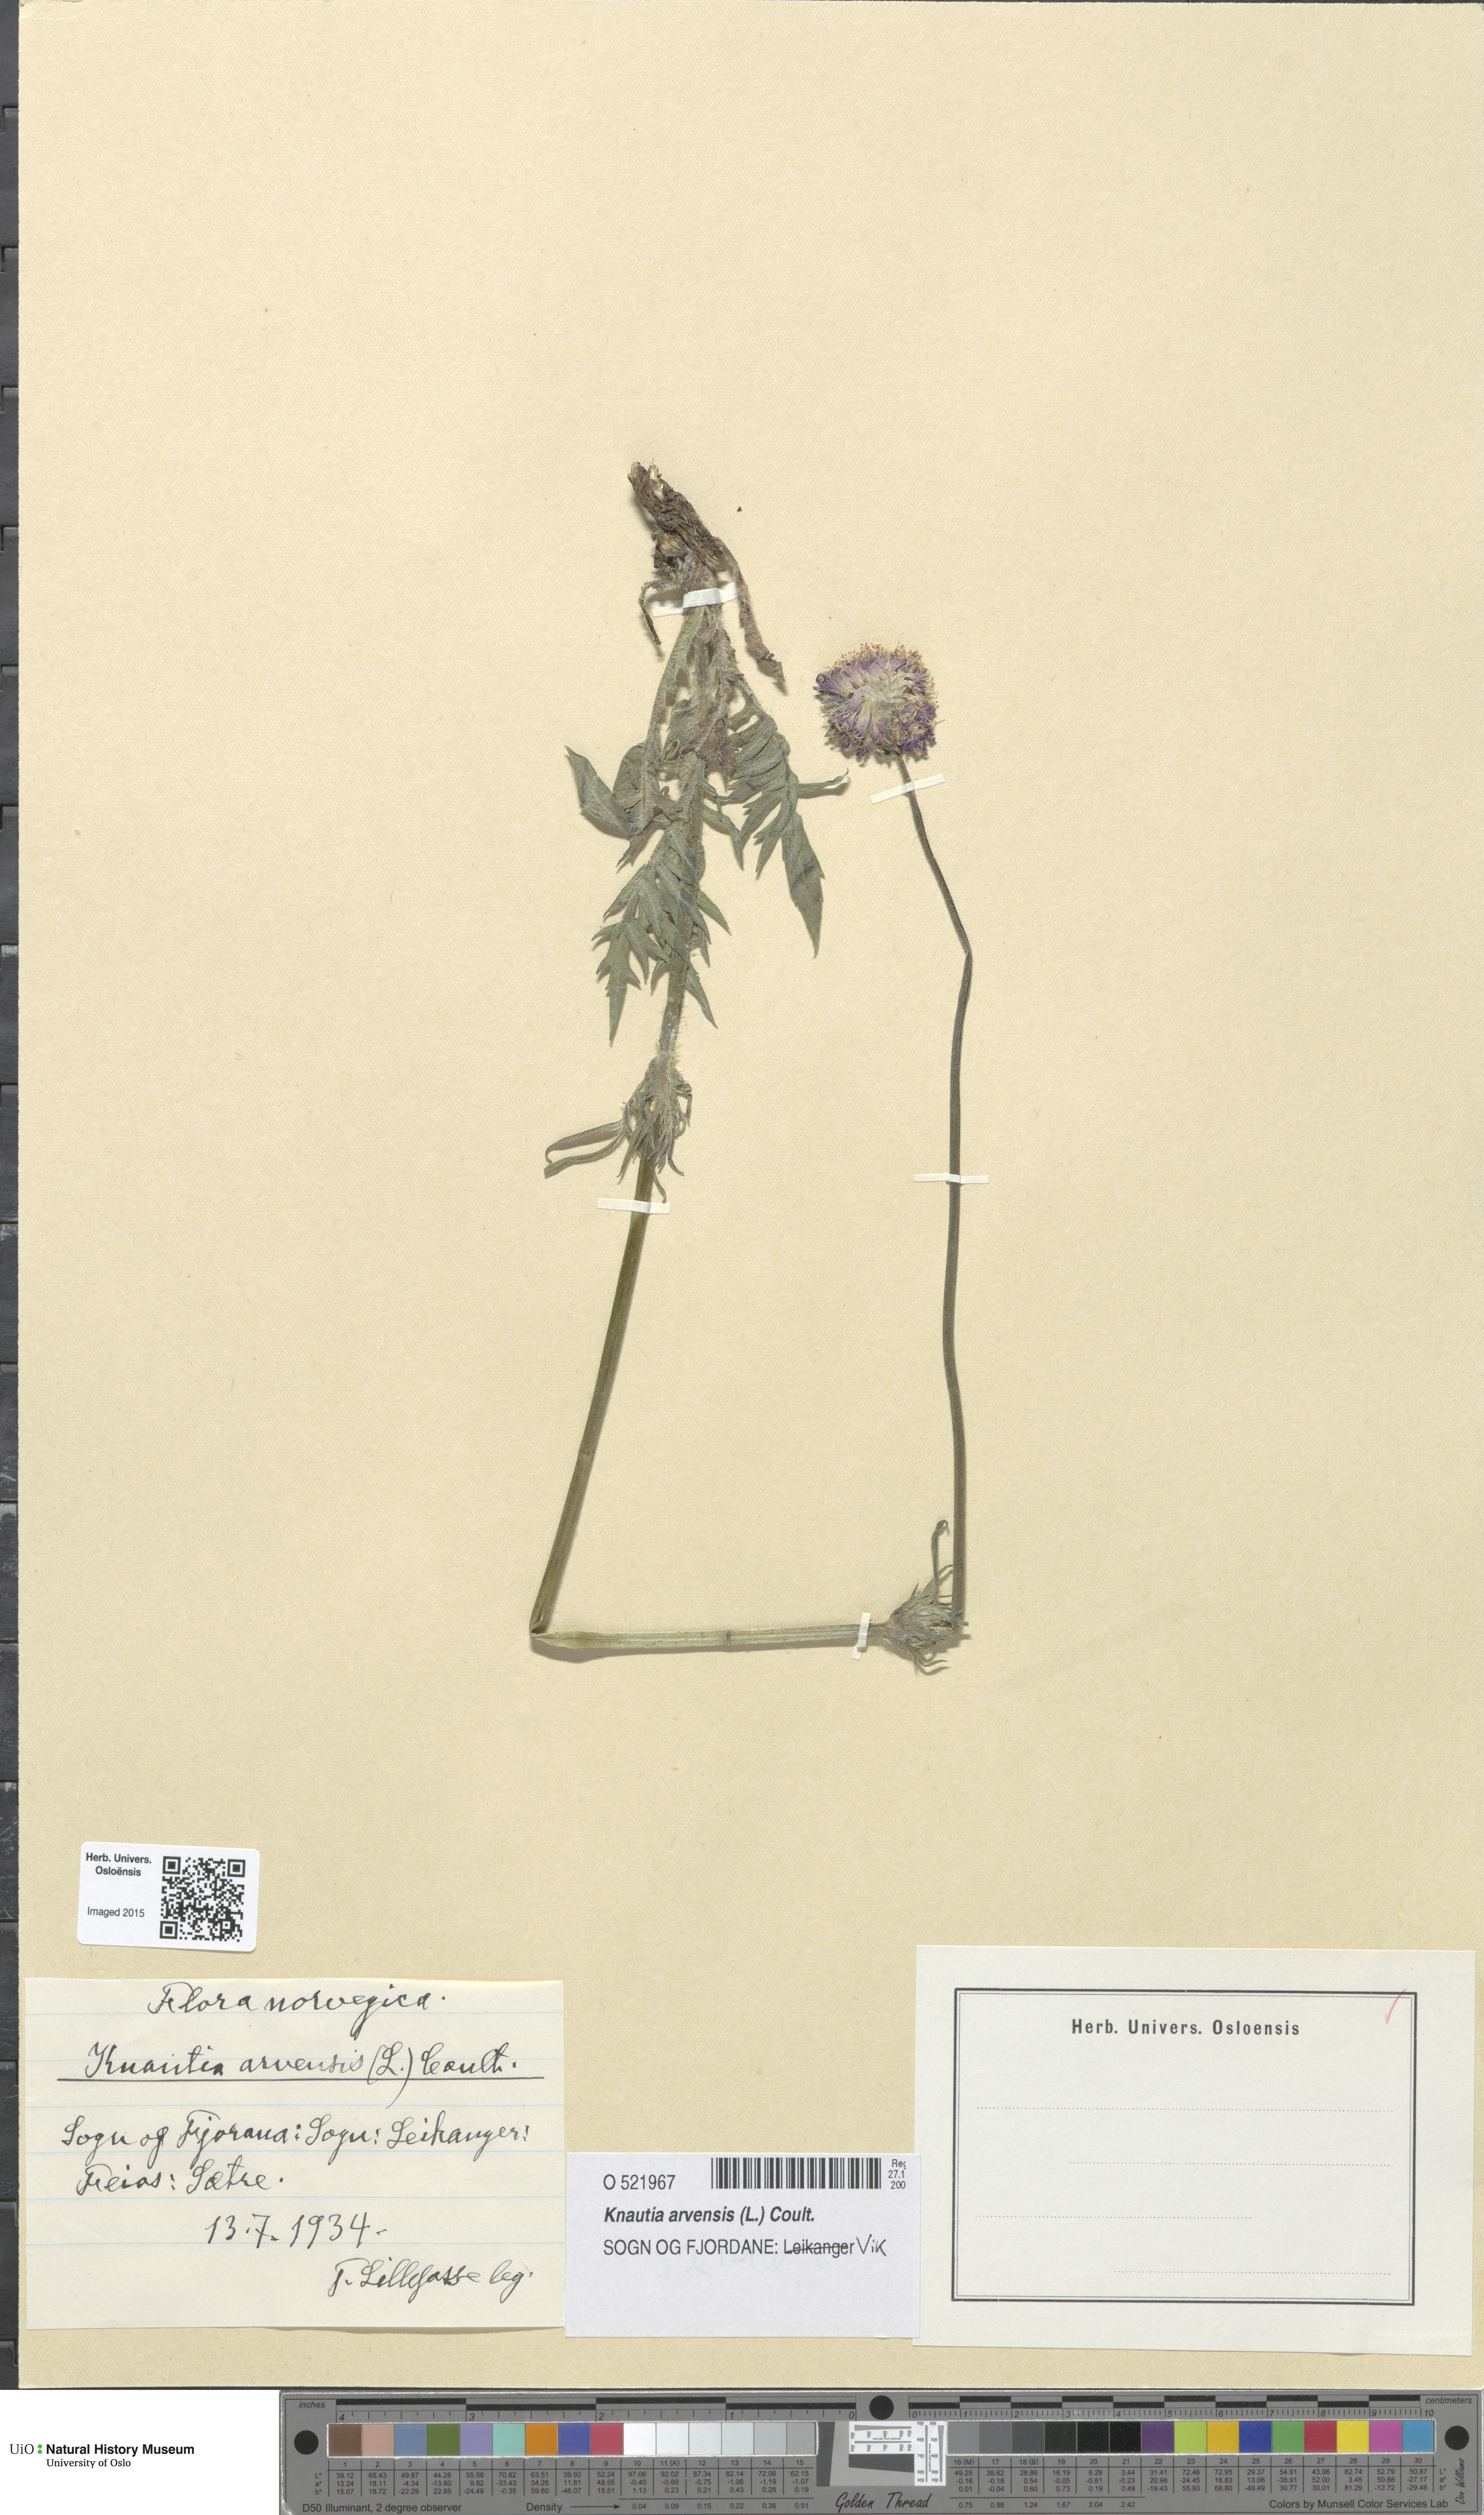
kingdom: Plantae
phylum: Tracheophyta
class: Magnoliopsida
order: Dipsacales
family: Caprifoliaceae
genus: Knautia
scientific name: Knautia arvensis
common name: Field scabiosa
